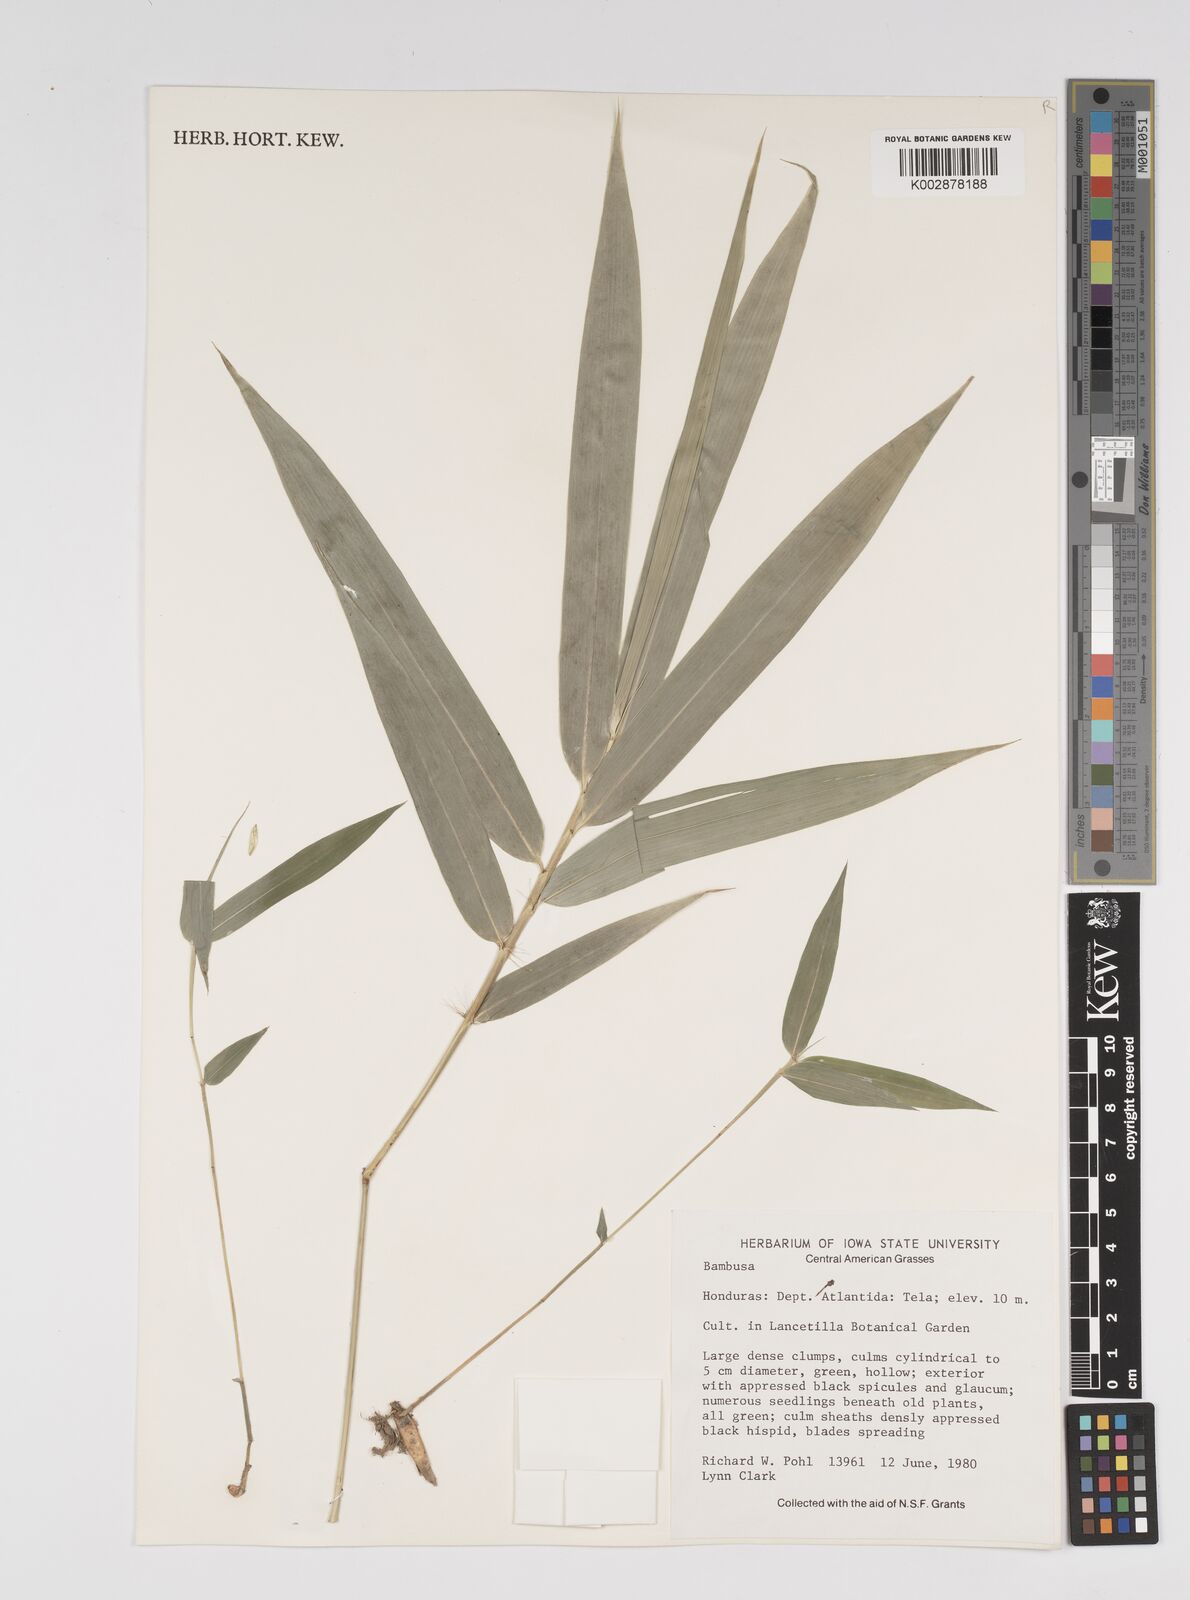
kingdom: Plantae
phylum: Tracheophyta
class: Liliopsida
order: Poales
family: Poaceae
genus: Bambusa
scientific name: Bambusa
